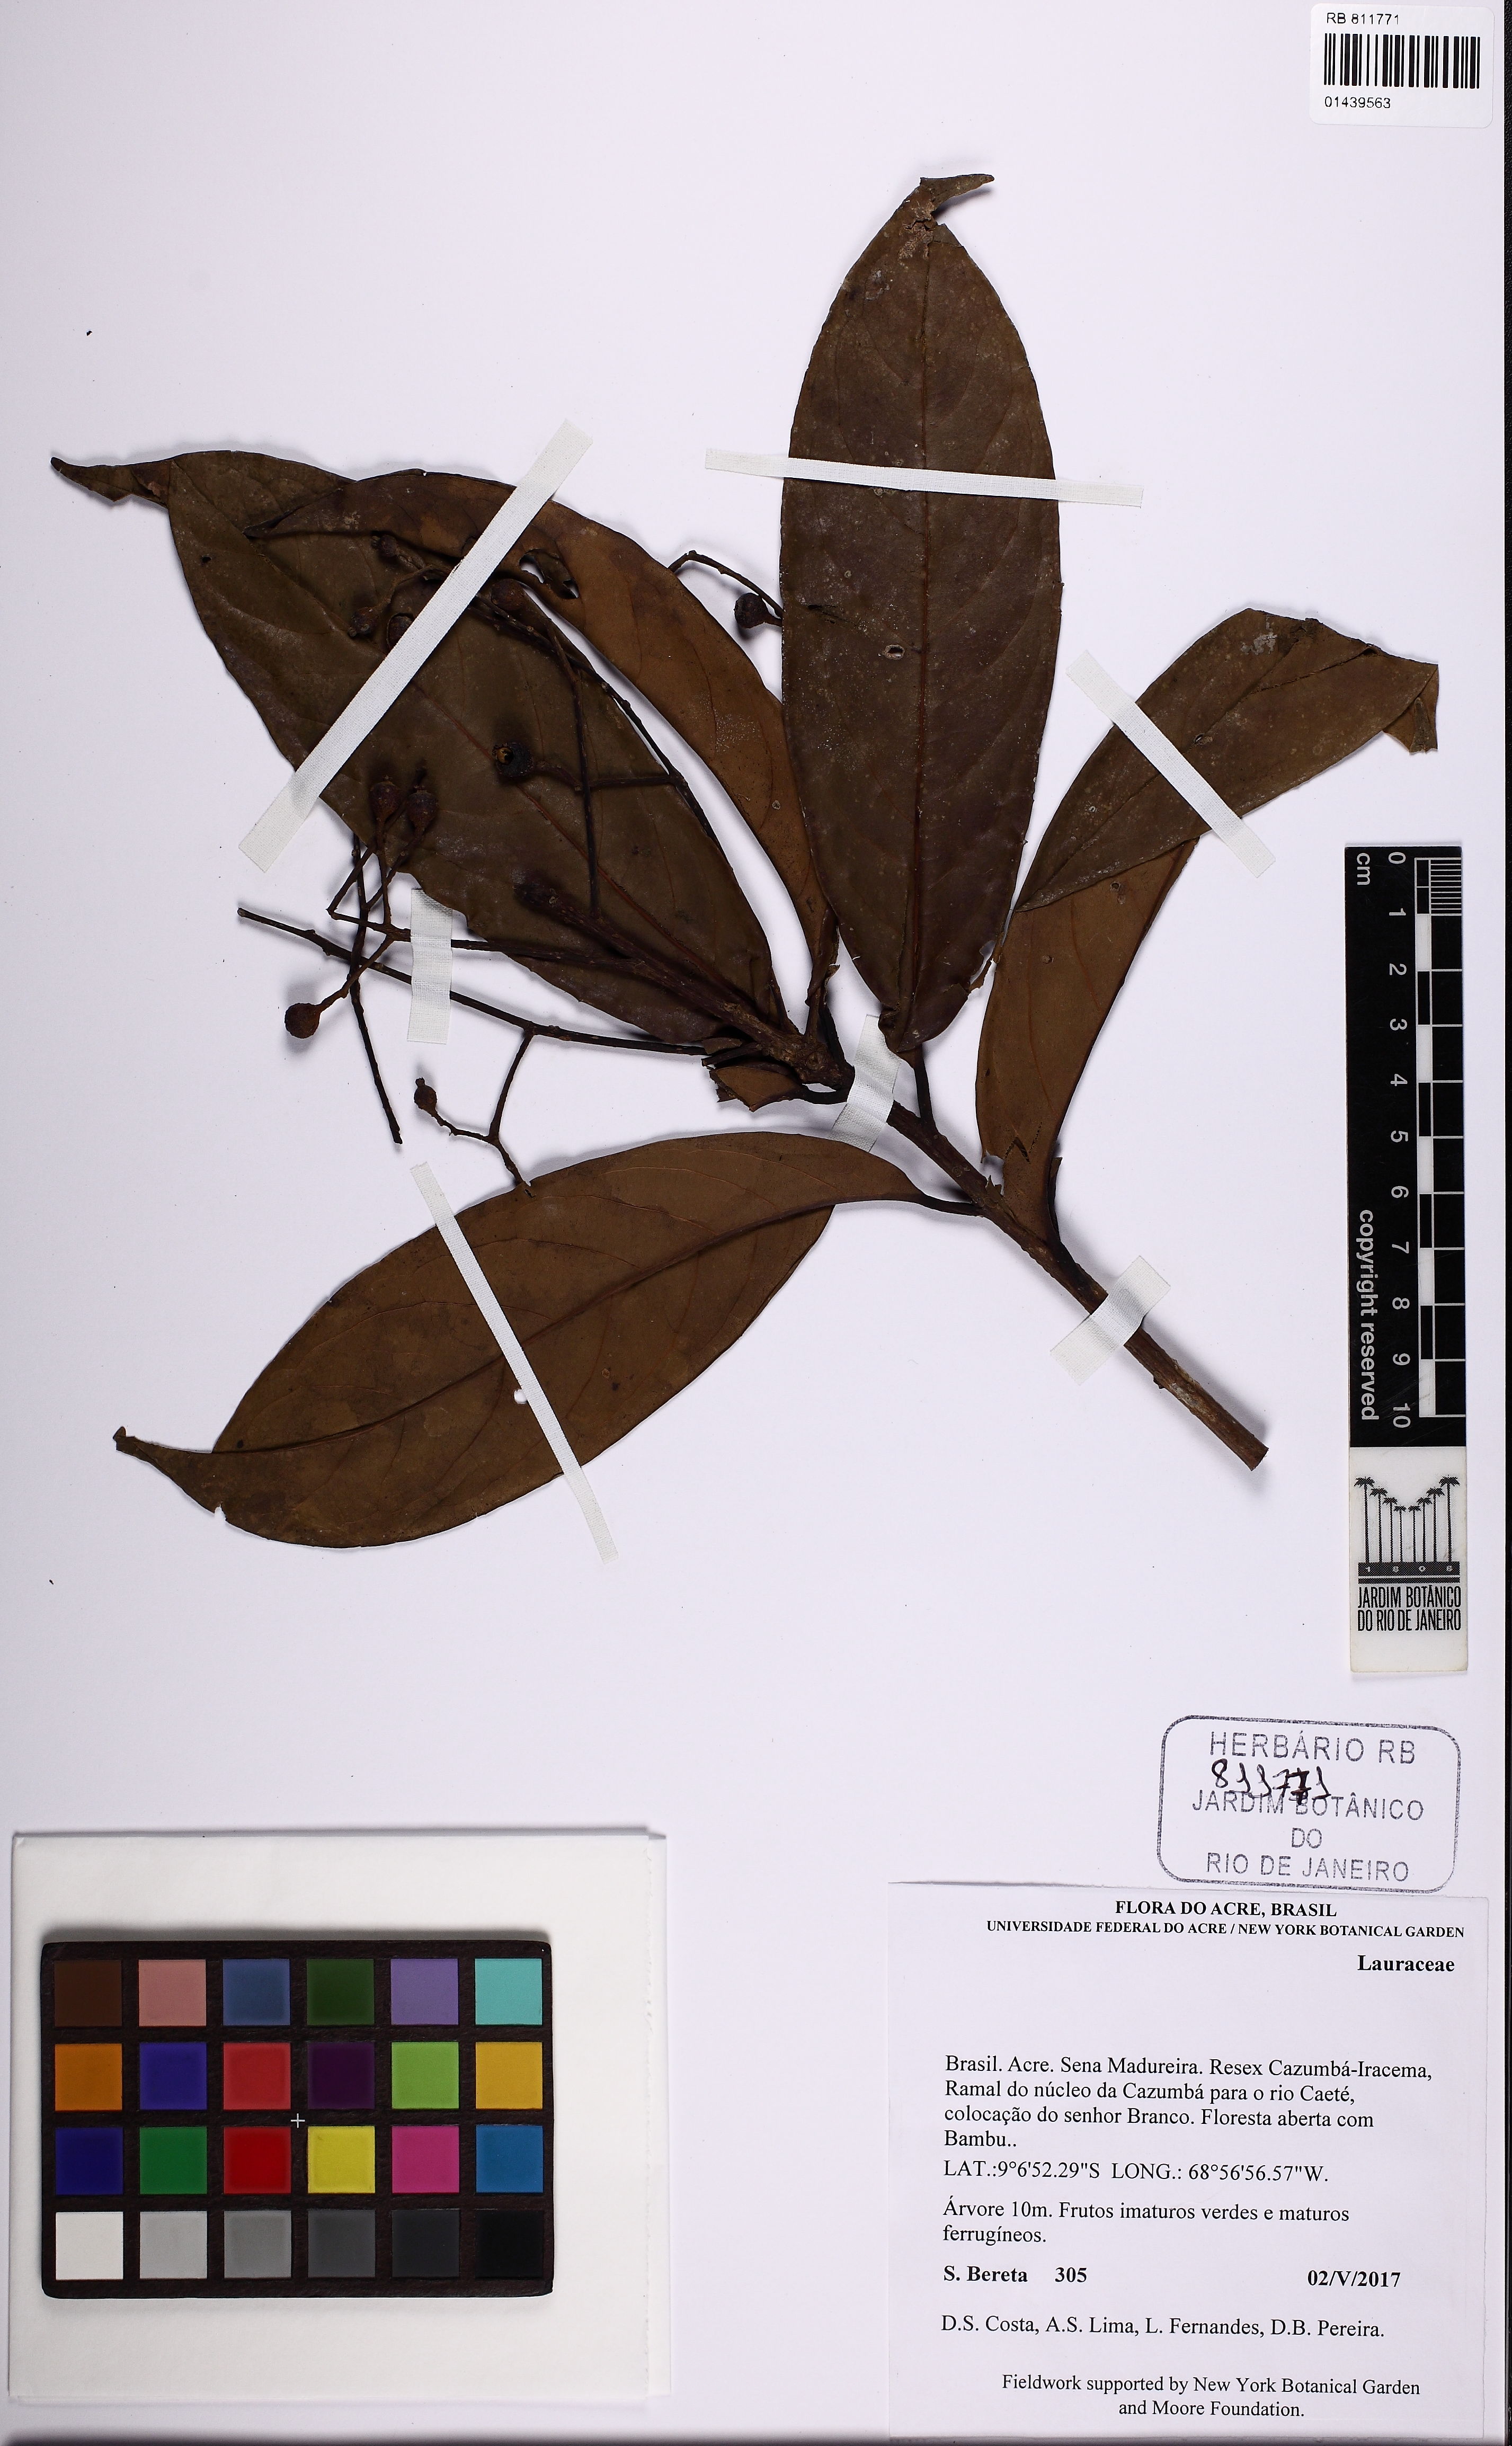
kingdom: Plantae
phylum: Tracheophyta
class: Magnoliopsida
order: Laurales
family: Lauraceae
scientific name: Lauraceae
